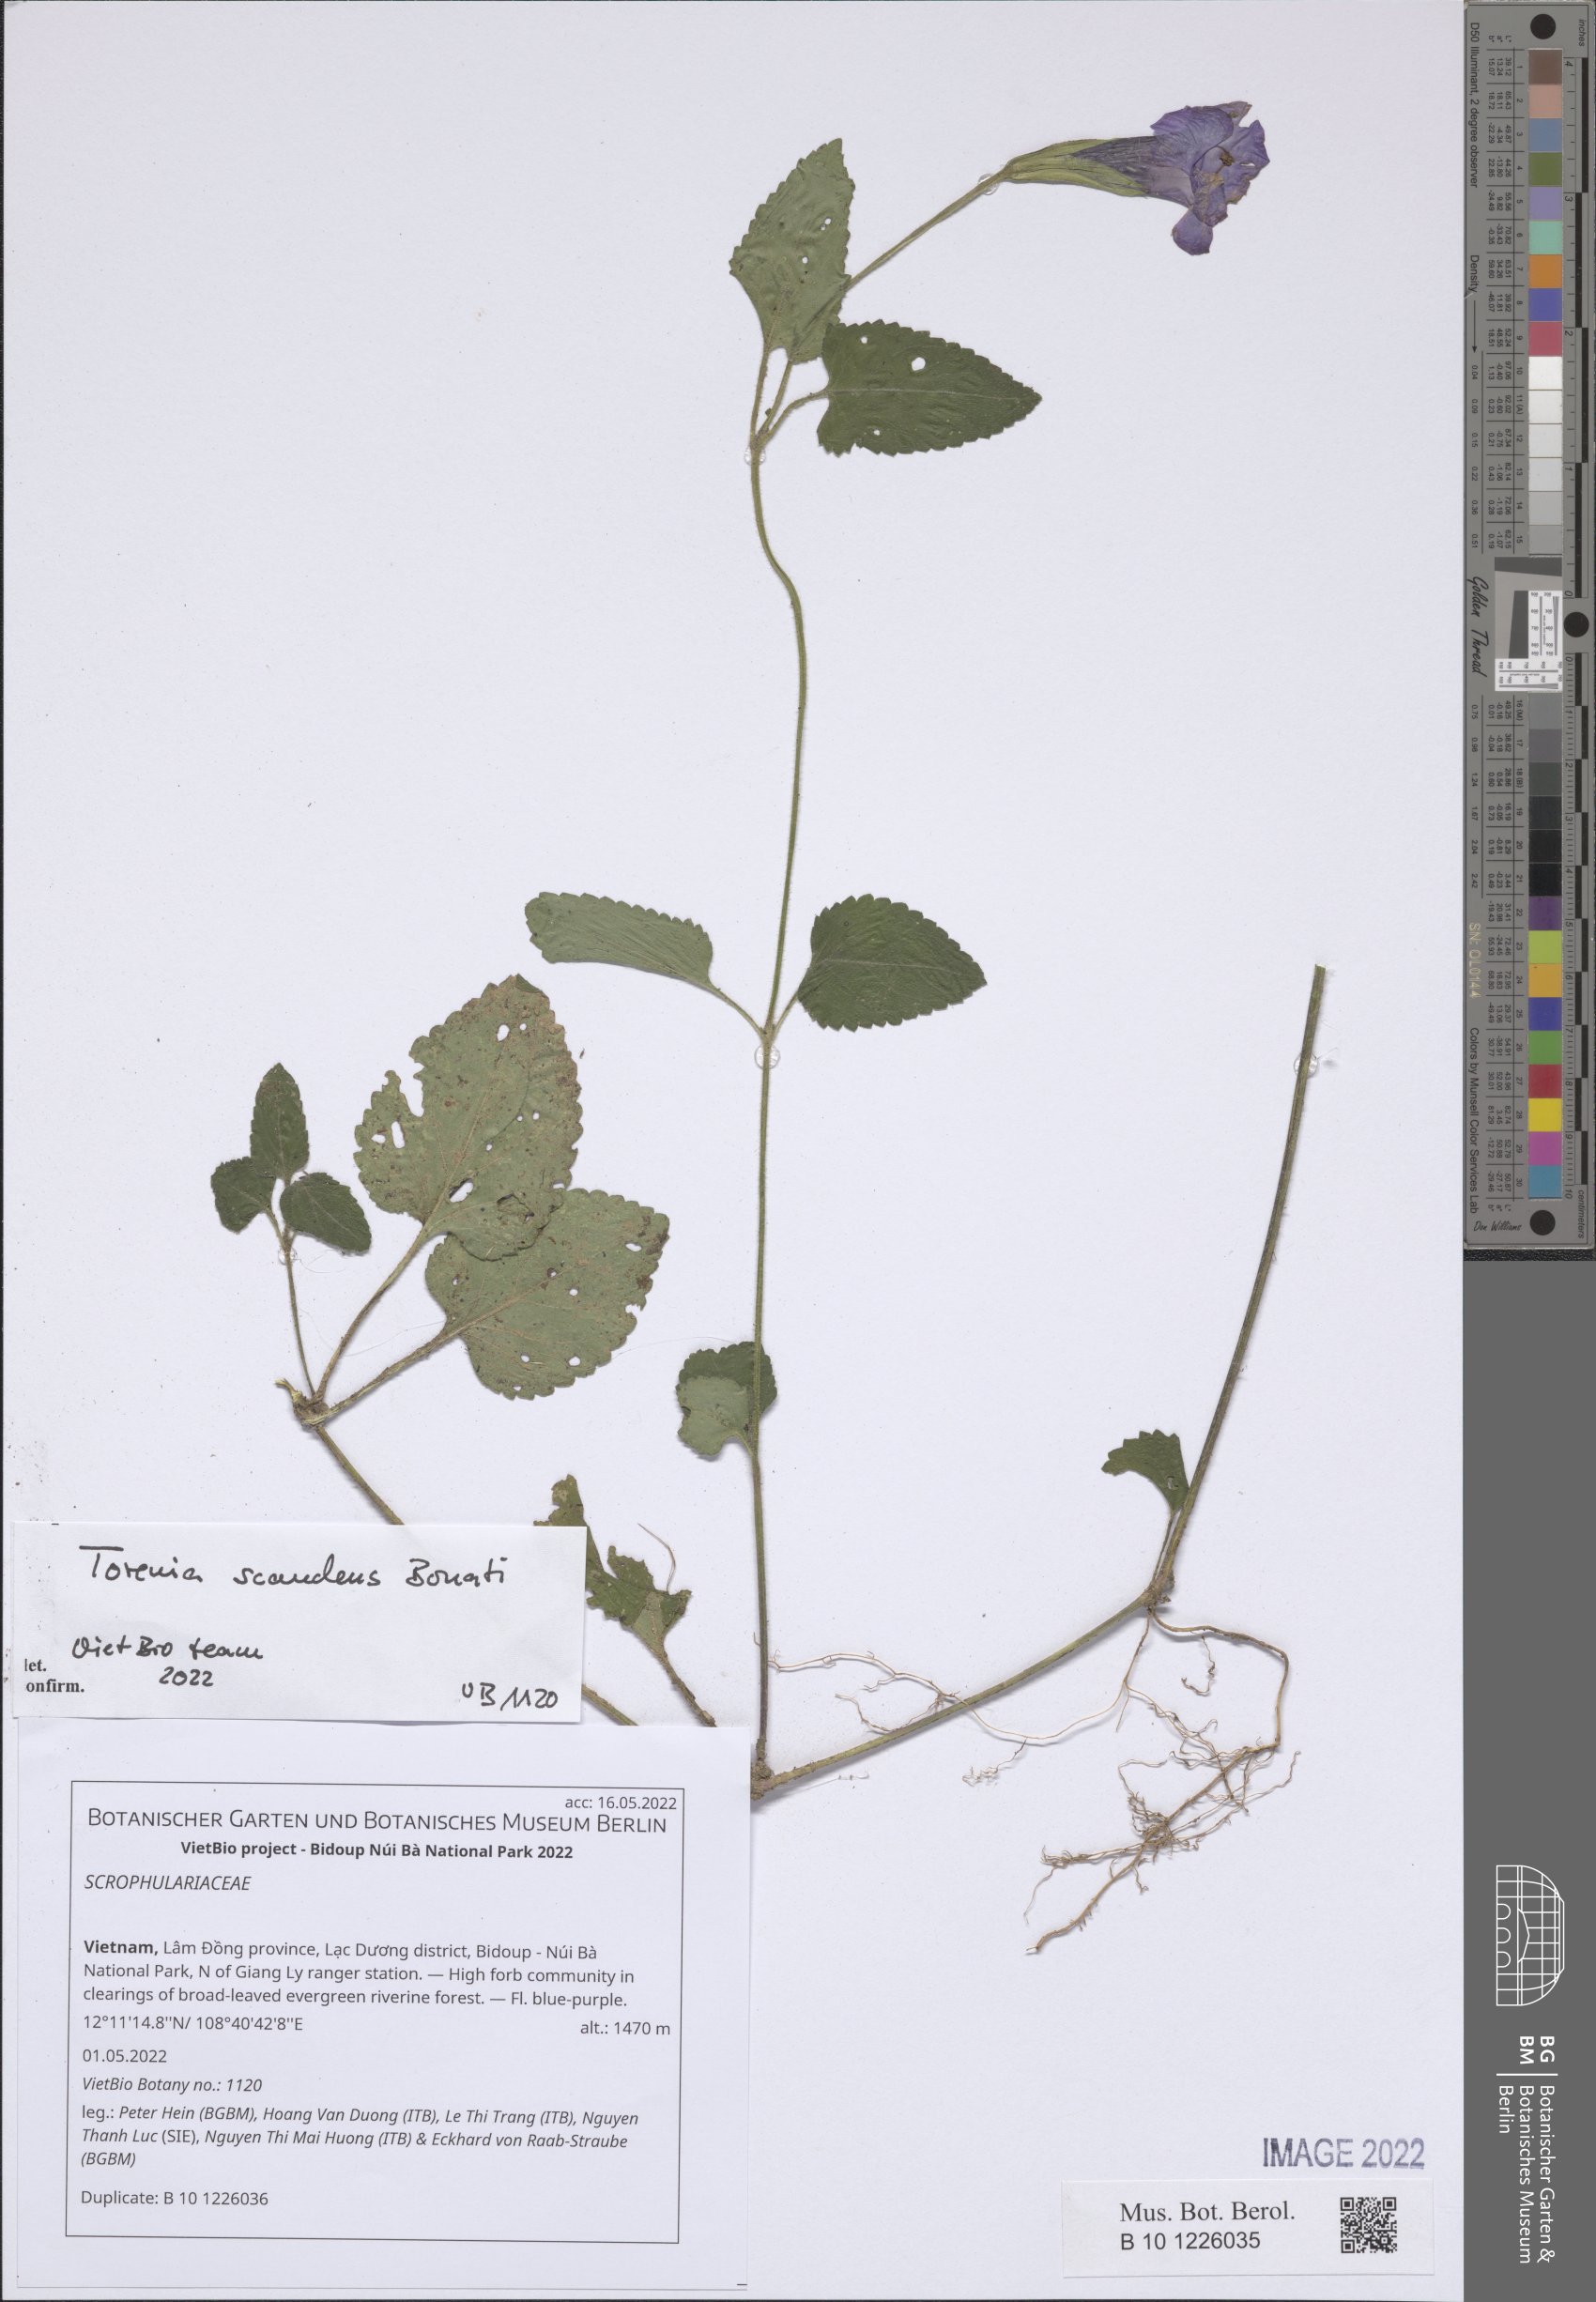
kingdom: Plantae
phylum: Tracheophyta
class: Magnoliopsida
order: Lamiales
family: Scrophulariaceae
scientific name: Scrophulariaceae
